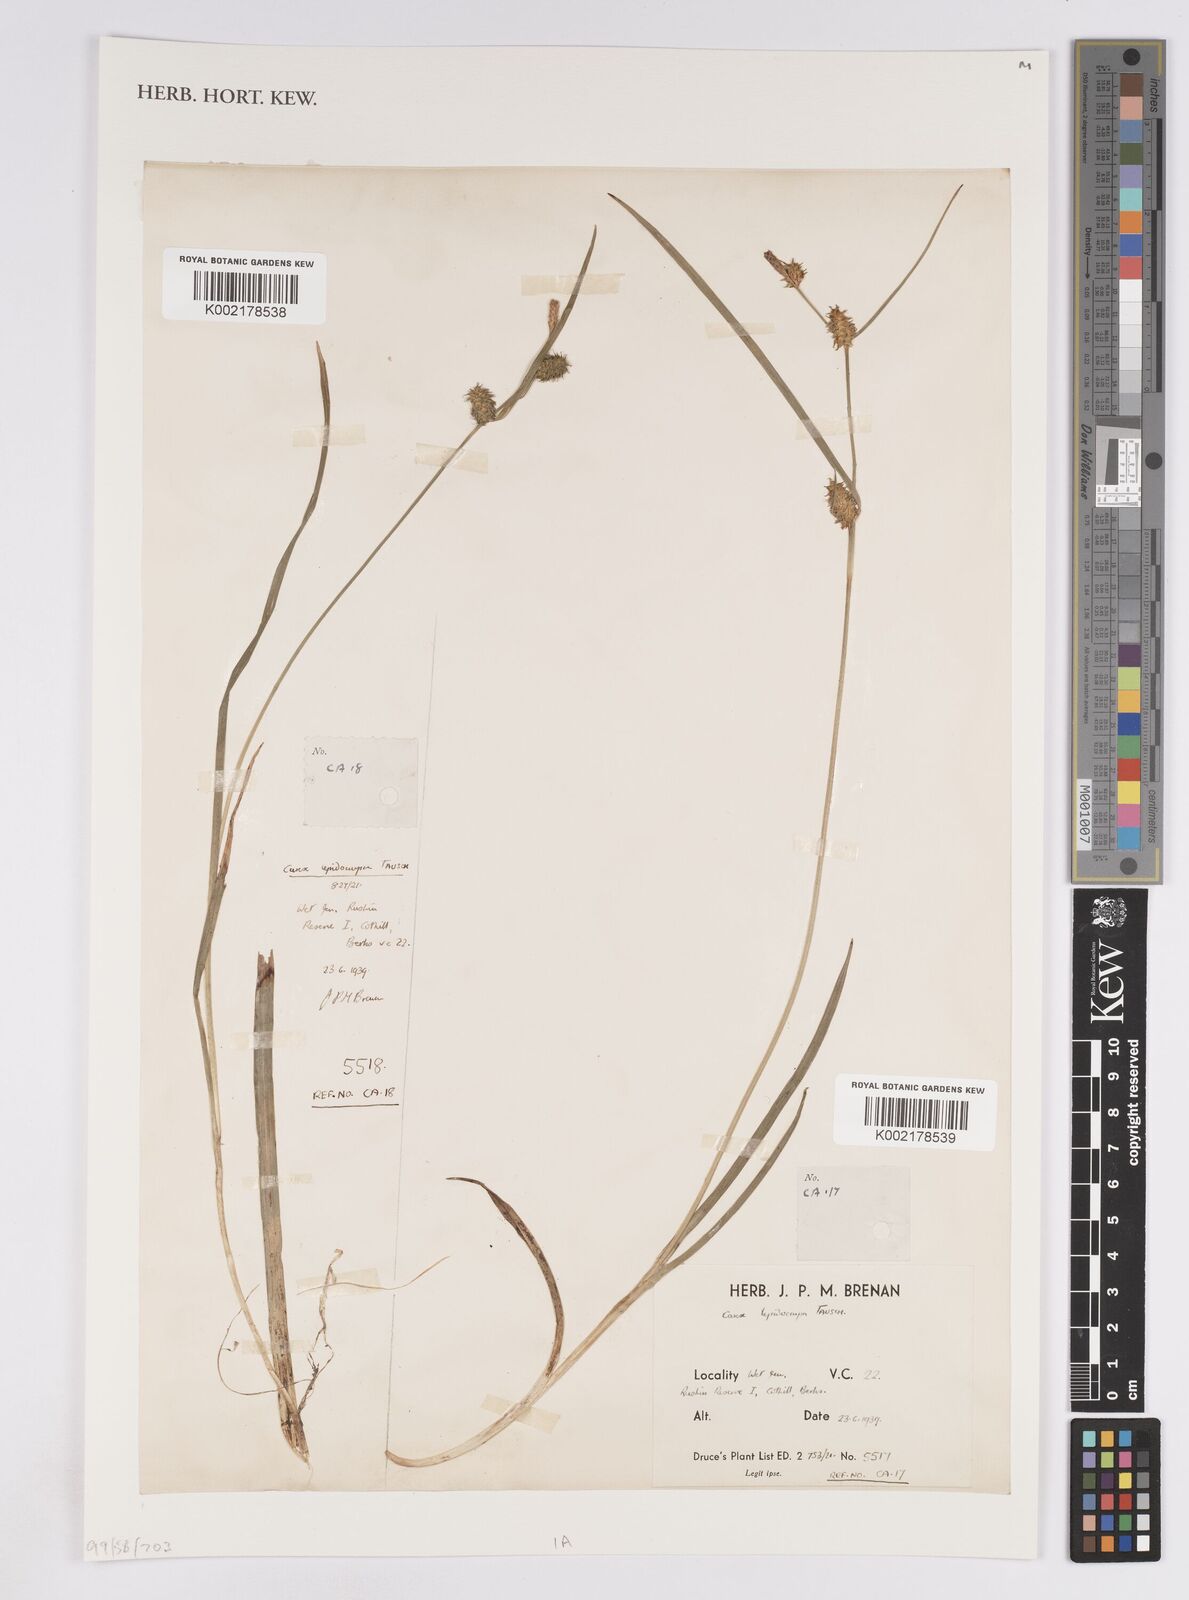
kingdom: Plantae
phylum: Tracheophyta
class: Liliopsida
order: Poales
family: Cyperaceae
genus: Carex
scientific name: Carex lepidocarpa
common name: Long-stalked yellow-sedge
